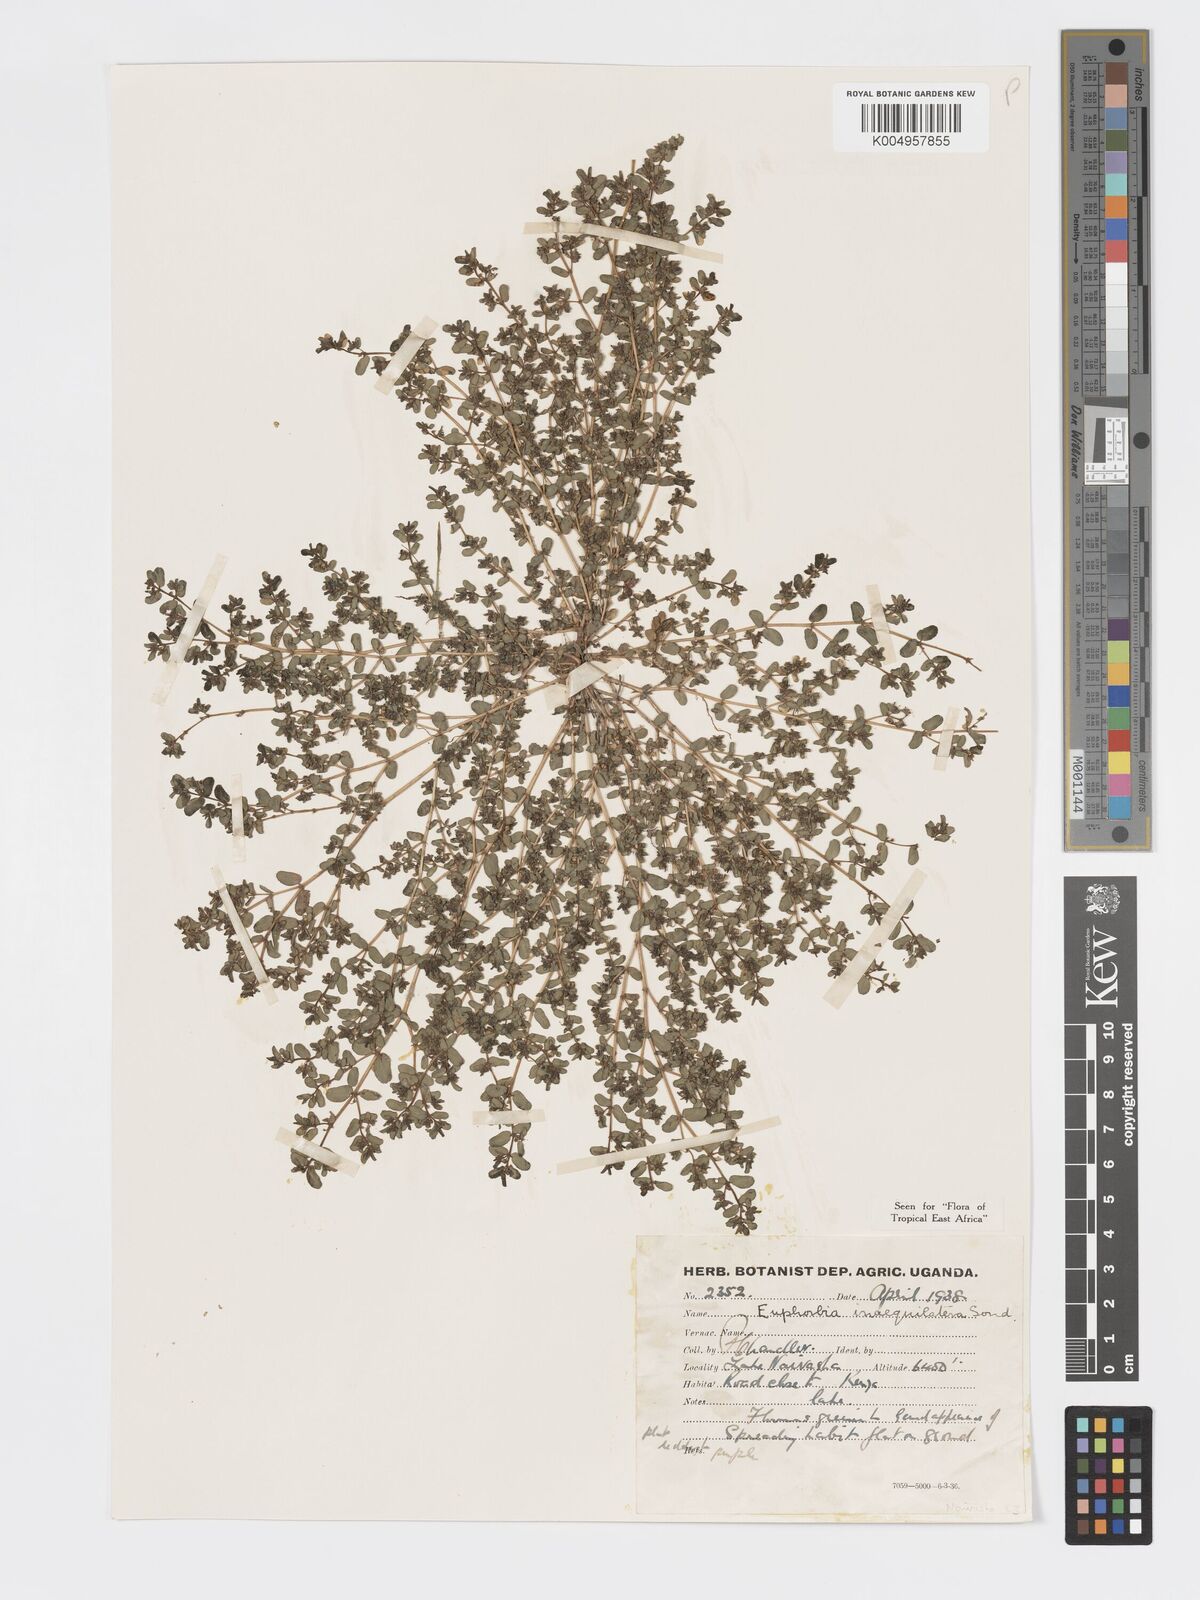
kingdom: Plantae
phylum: Tracheophyta
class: Magnoliopsida
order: Malpighiales
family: Euphorbiaceae
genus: Euphorbia
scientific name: Euphorbia inaequilatera
